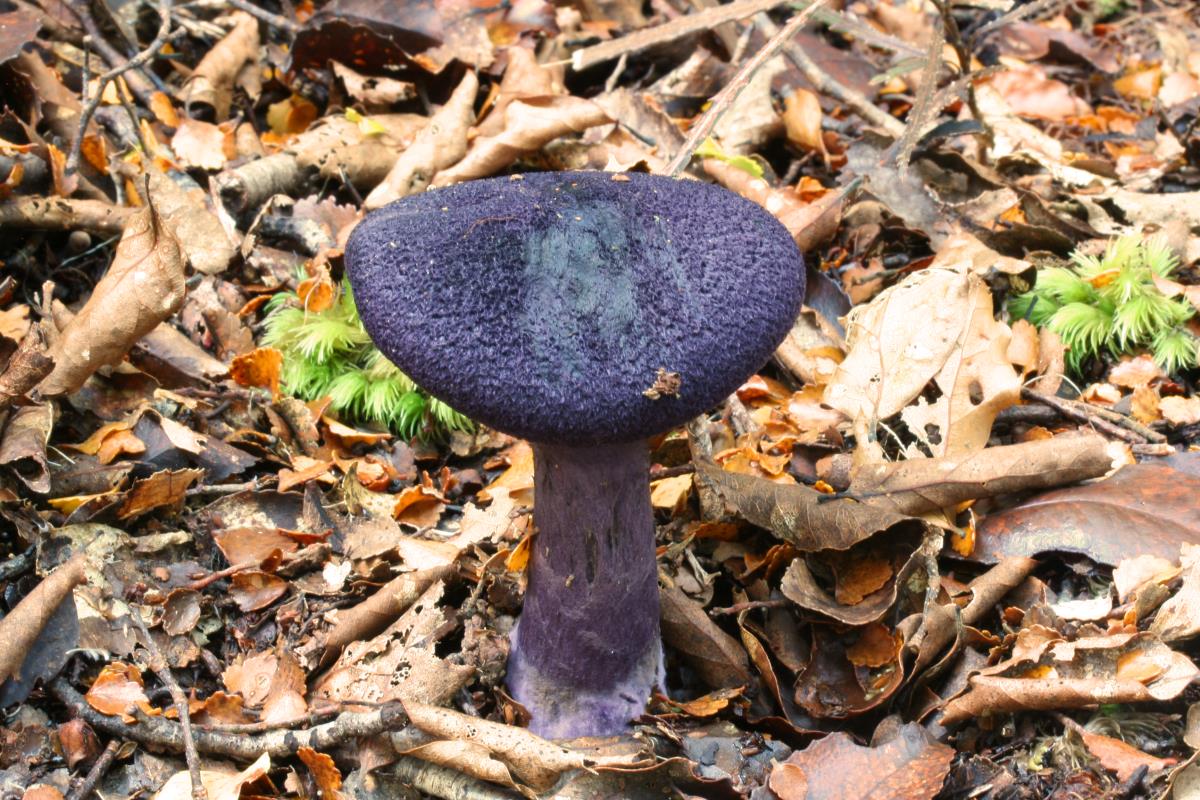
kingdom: Fungi
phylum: Basidiomycota
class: Agaricomycetes
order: Agaricales
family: Cortinariaceae
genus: Cortinarius
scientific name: Cortinarius atrolazulinus
